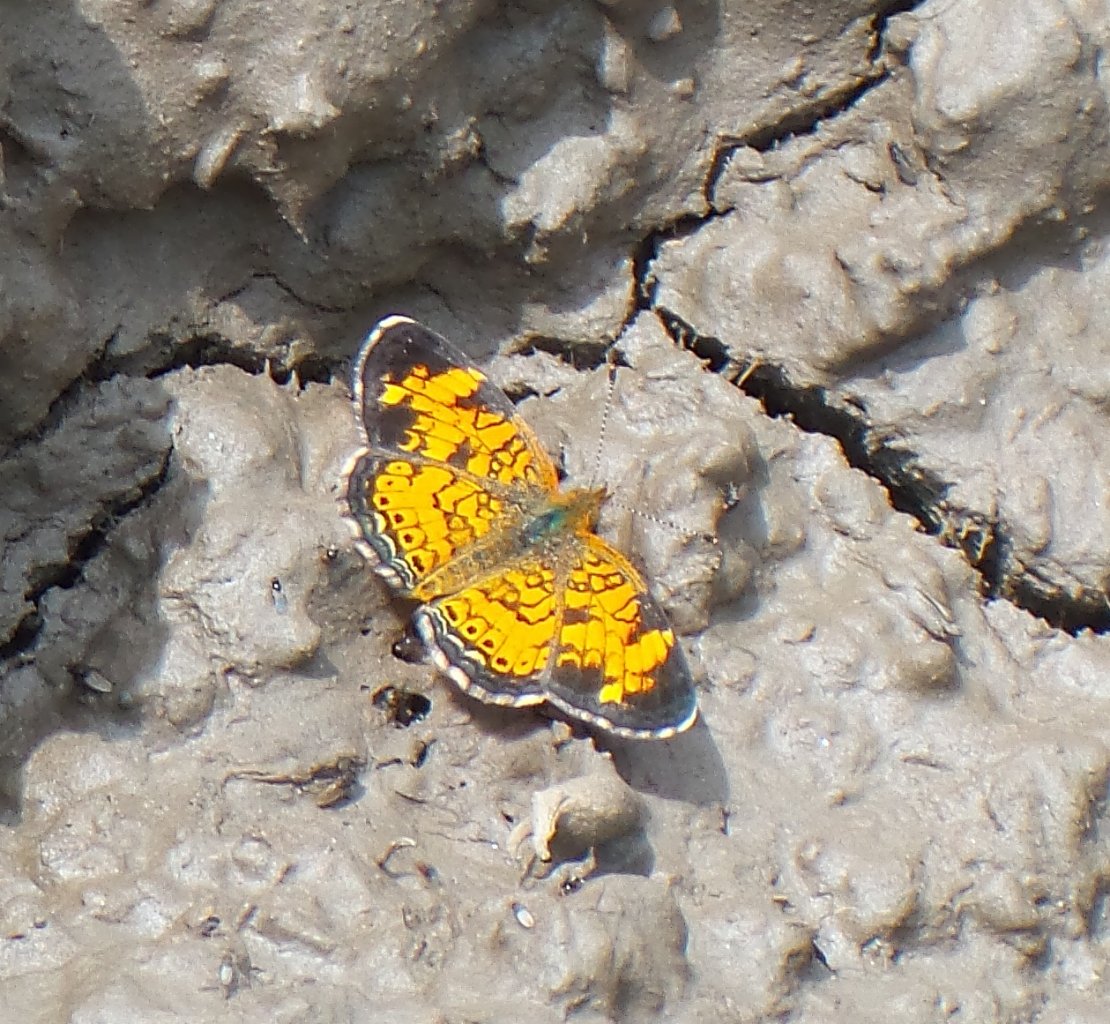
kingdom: Animalia
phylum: Arthropoda
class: Insecta
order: Lepidoptera
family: Nymphalidae
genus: Phyciodes
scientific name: Phyciodes tharos
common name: Pearl Crescent
